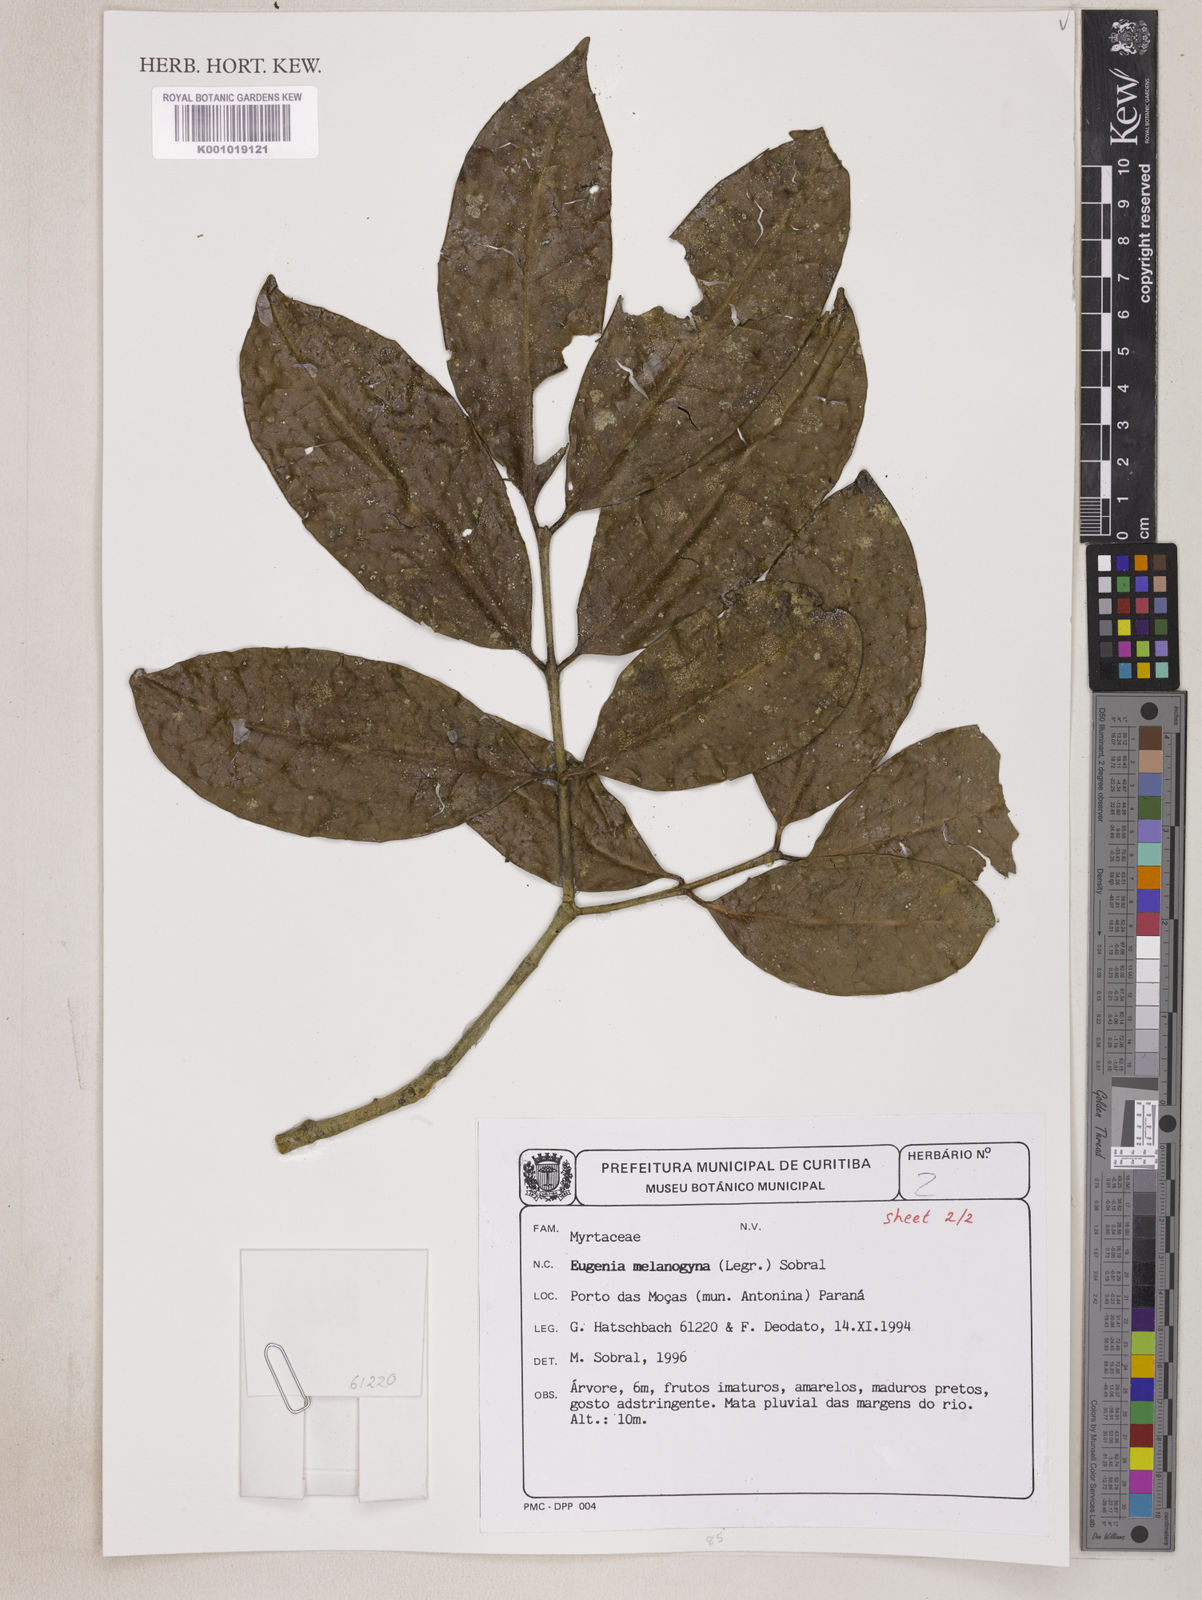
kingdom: Plantae
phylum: Tracheophyta
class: Magnoliopsida
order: Myrtales
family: Myrtaceae
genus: Eugenia
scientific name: Eugenia melanogyna
